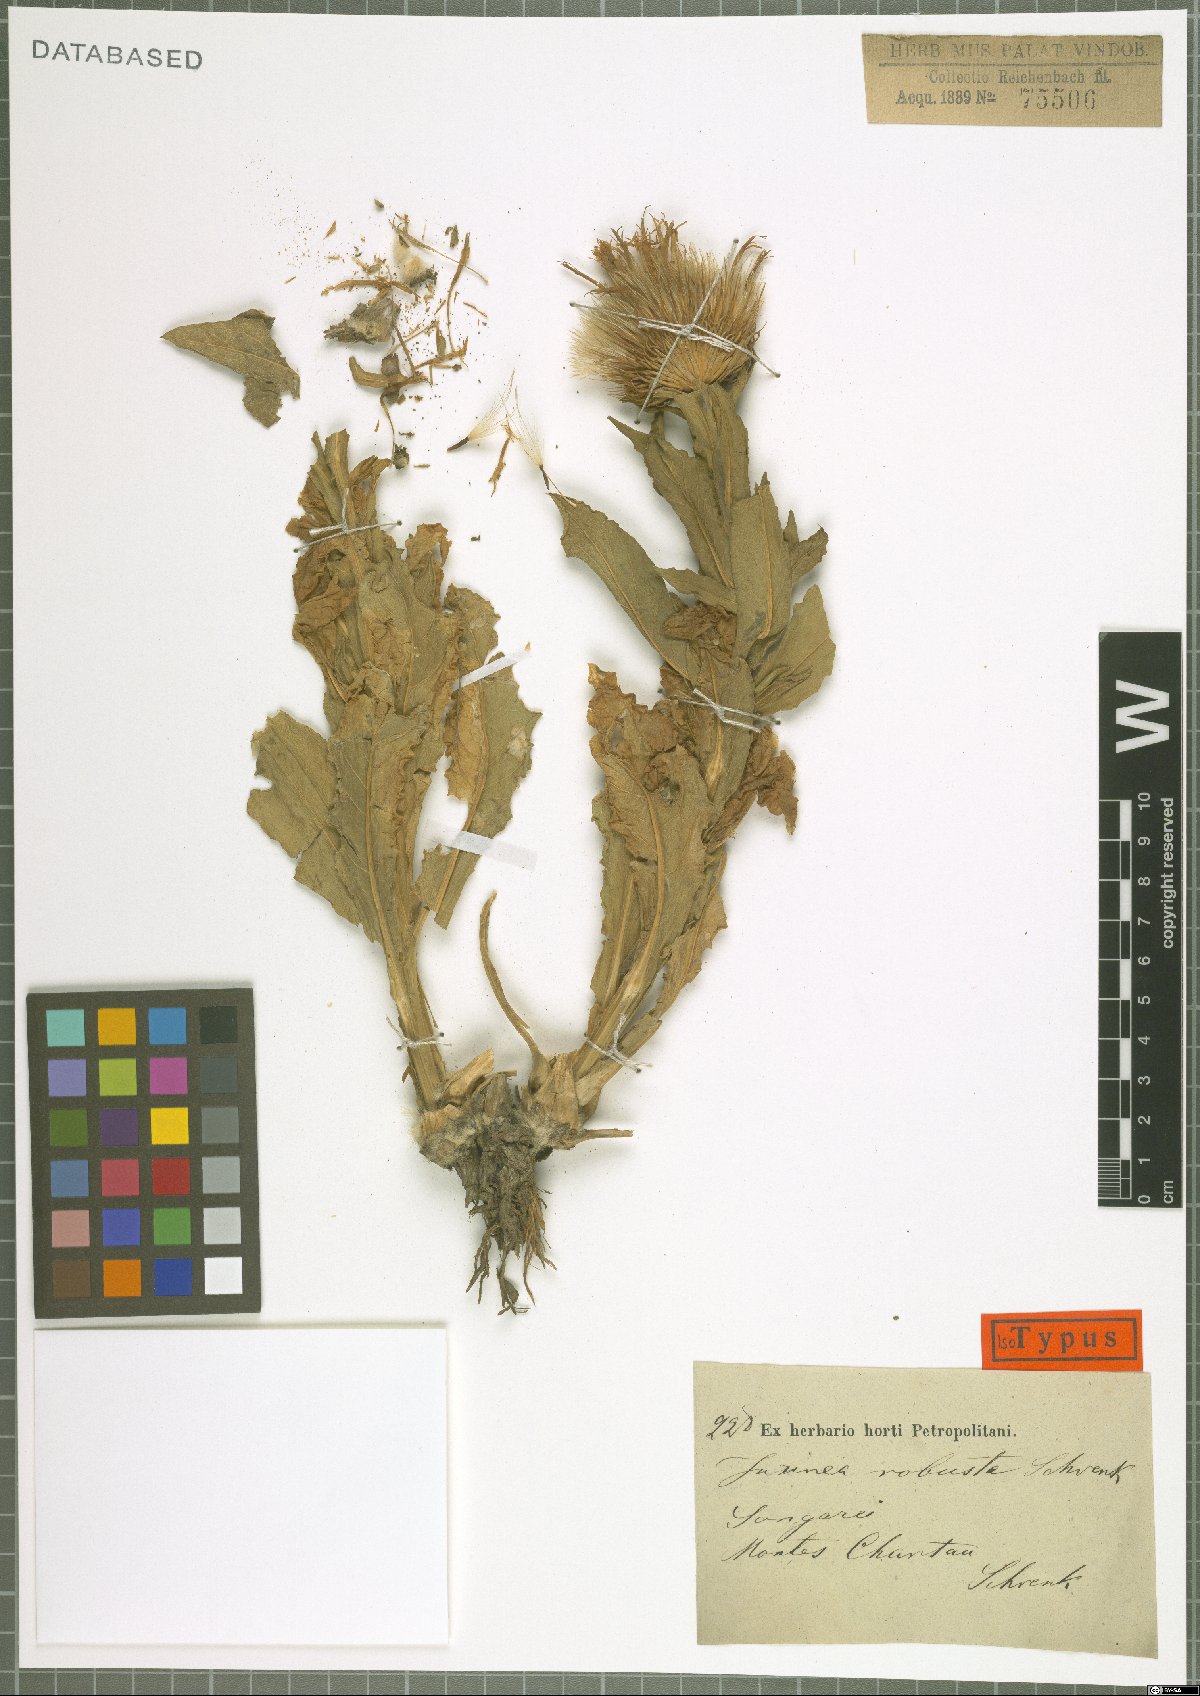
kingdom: Plantae
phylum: Tracheophyta
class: Magnoliopsida
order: Asterales
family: Asteraceae
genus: Jurinea
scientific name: Jurinea robusta
